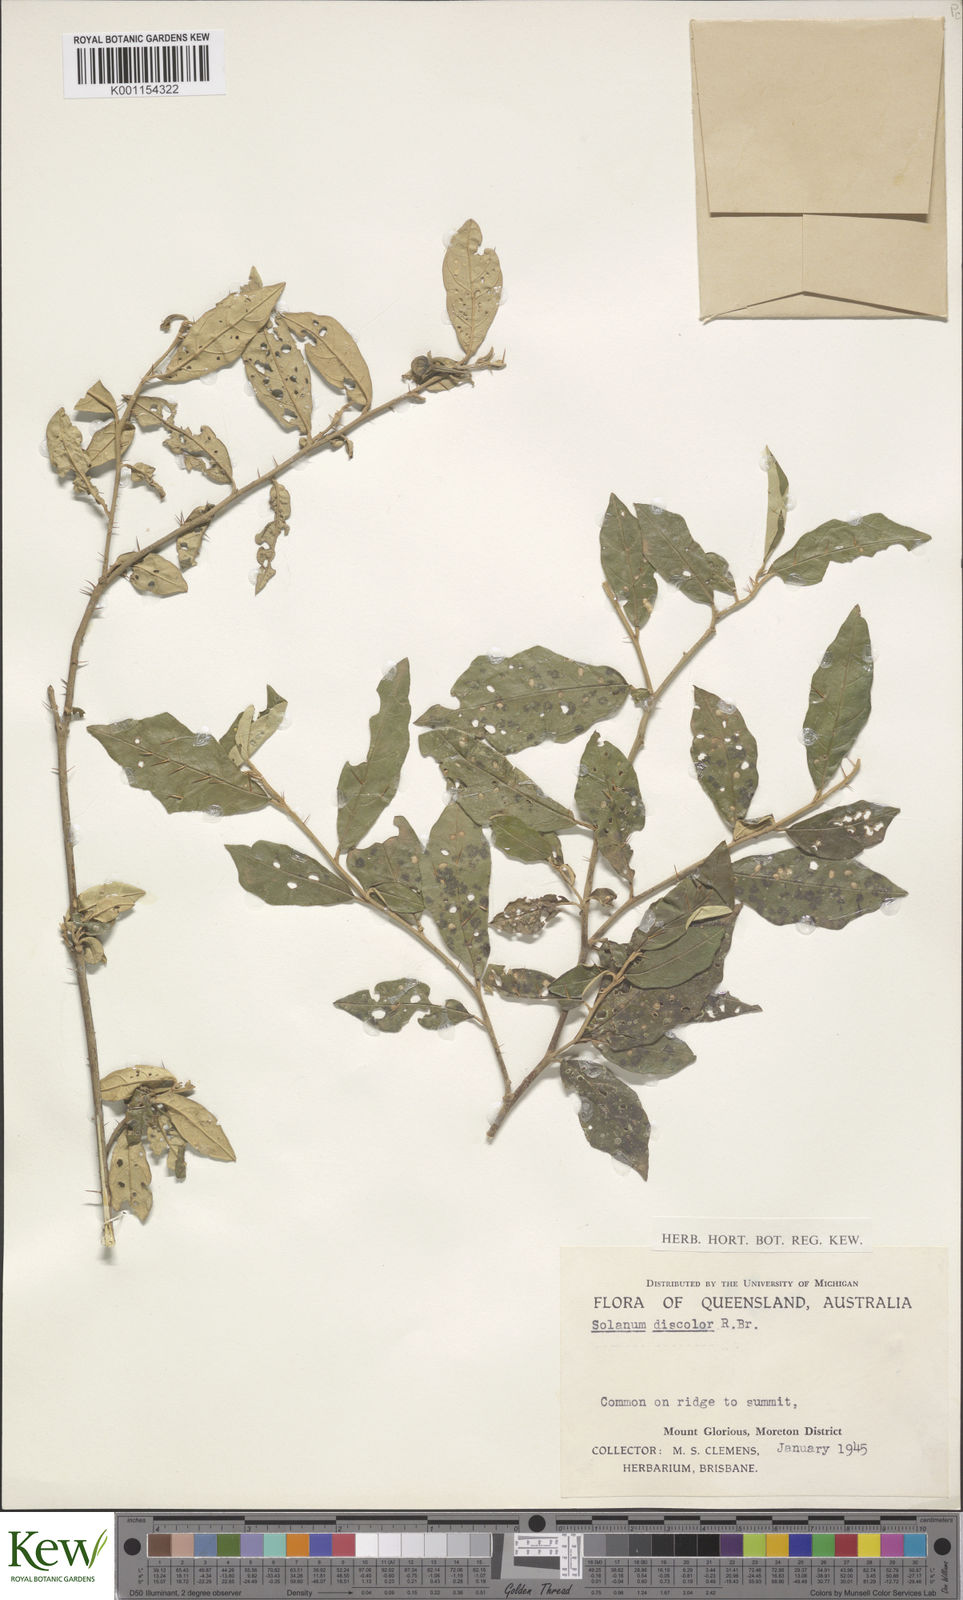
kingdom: Plantae
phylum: Tracheophyta
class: Magnoliopsida
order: Solanales
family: Solanaceae
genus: Solanum
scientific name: Solanum ferocissimum
